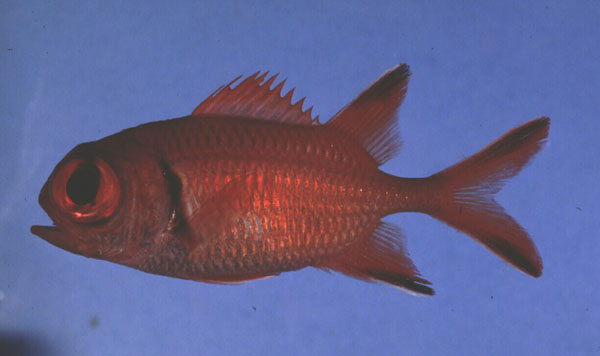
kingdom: Animalia
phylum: Chordata
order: Beryciformes
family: Holocentridae
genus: Myripristis
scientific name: Myripristis berndti
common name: Bigscale soldierfish
